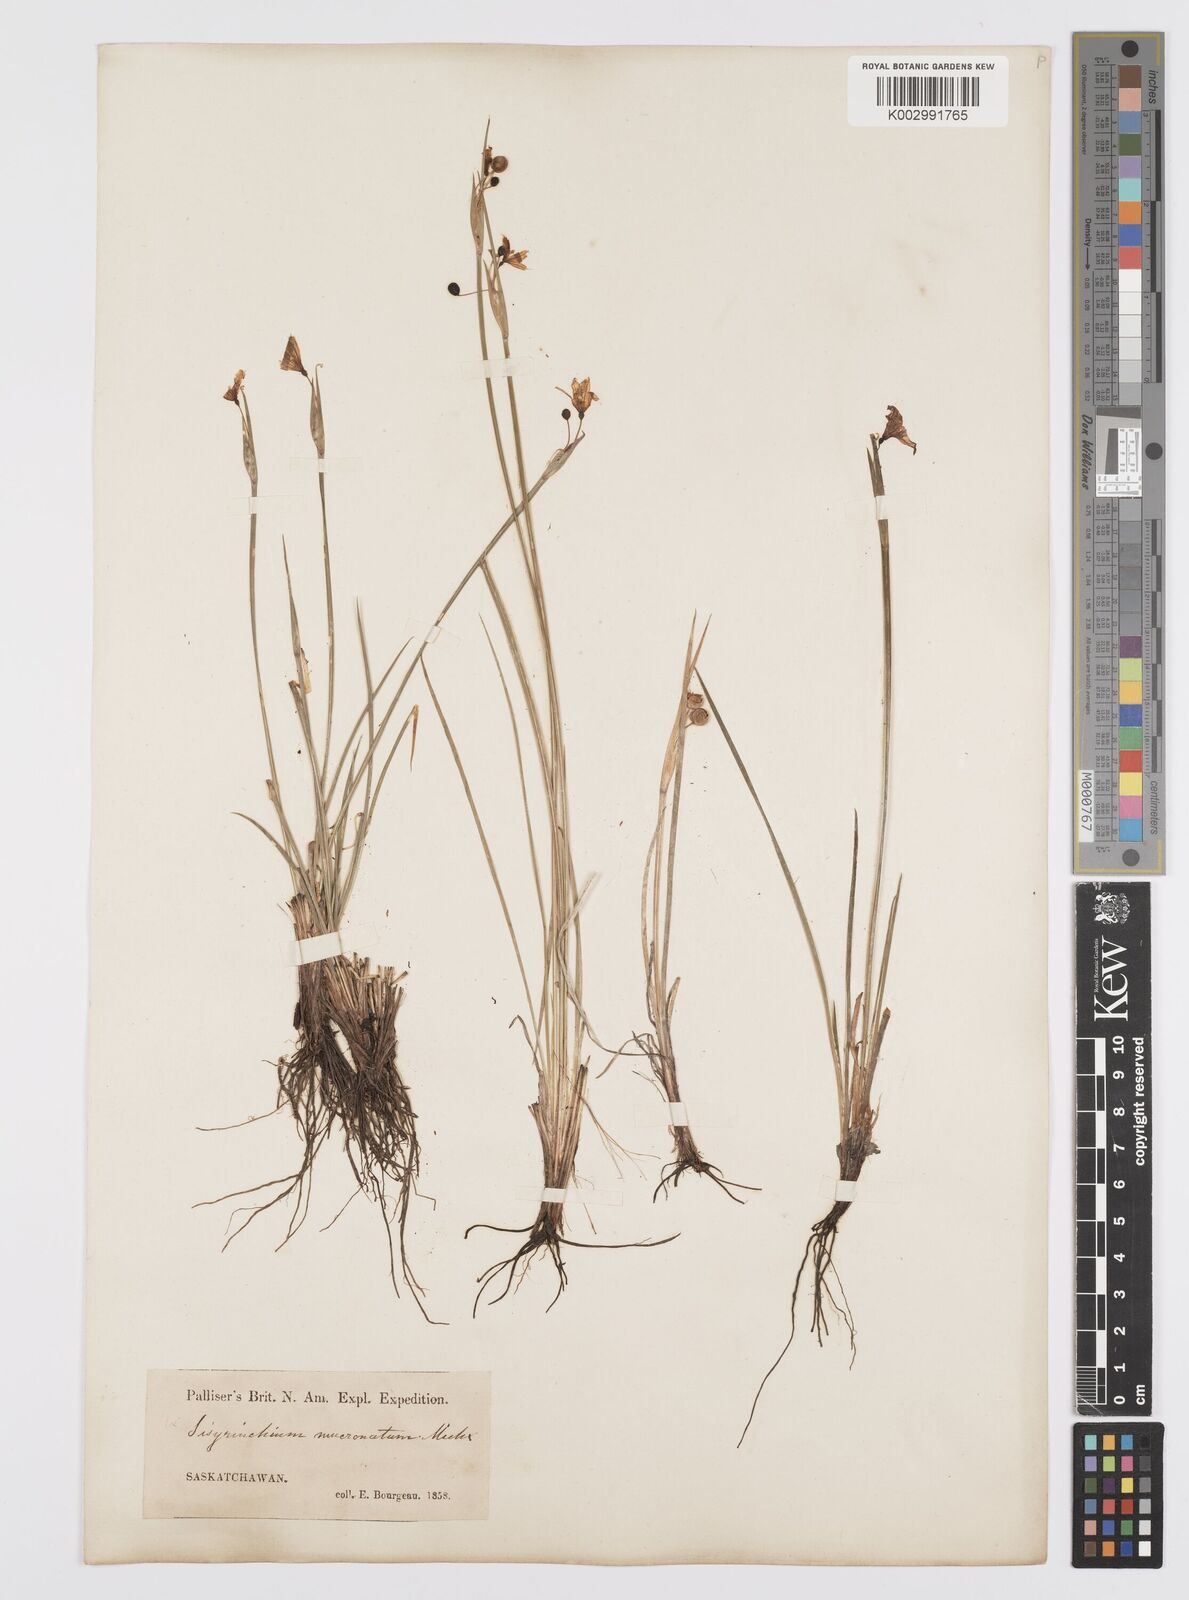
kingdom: Plantae
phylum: Tracheophyta
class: Liliopsida
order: Asparagales
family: Iridaceae
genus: Sisyrinchium
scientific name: Sisyrinchium bermudiana
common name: Blue-eyed-grass
